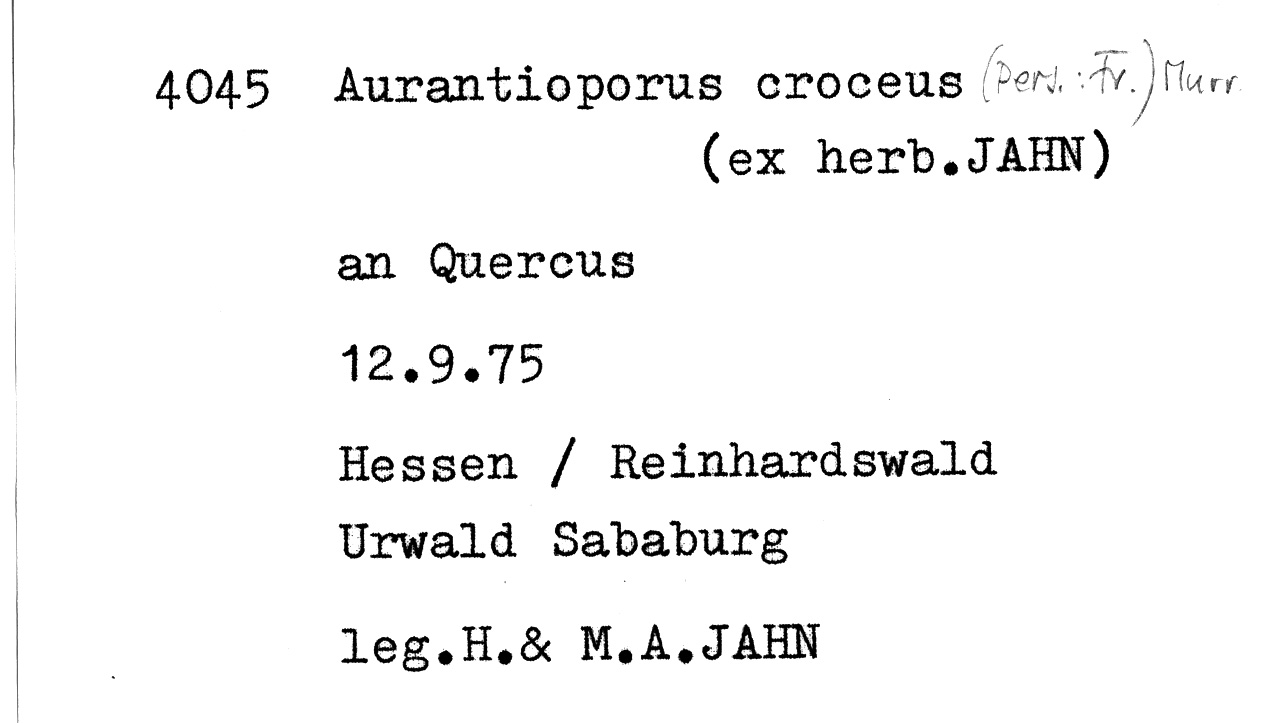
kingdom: Fungi
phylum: Basidiomycota
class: Agaricomycetes
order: Polyporales
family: Phanerochaetaceae
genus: Hapalopilus
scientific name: Hapalopilus croceus
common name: Orange polypore
